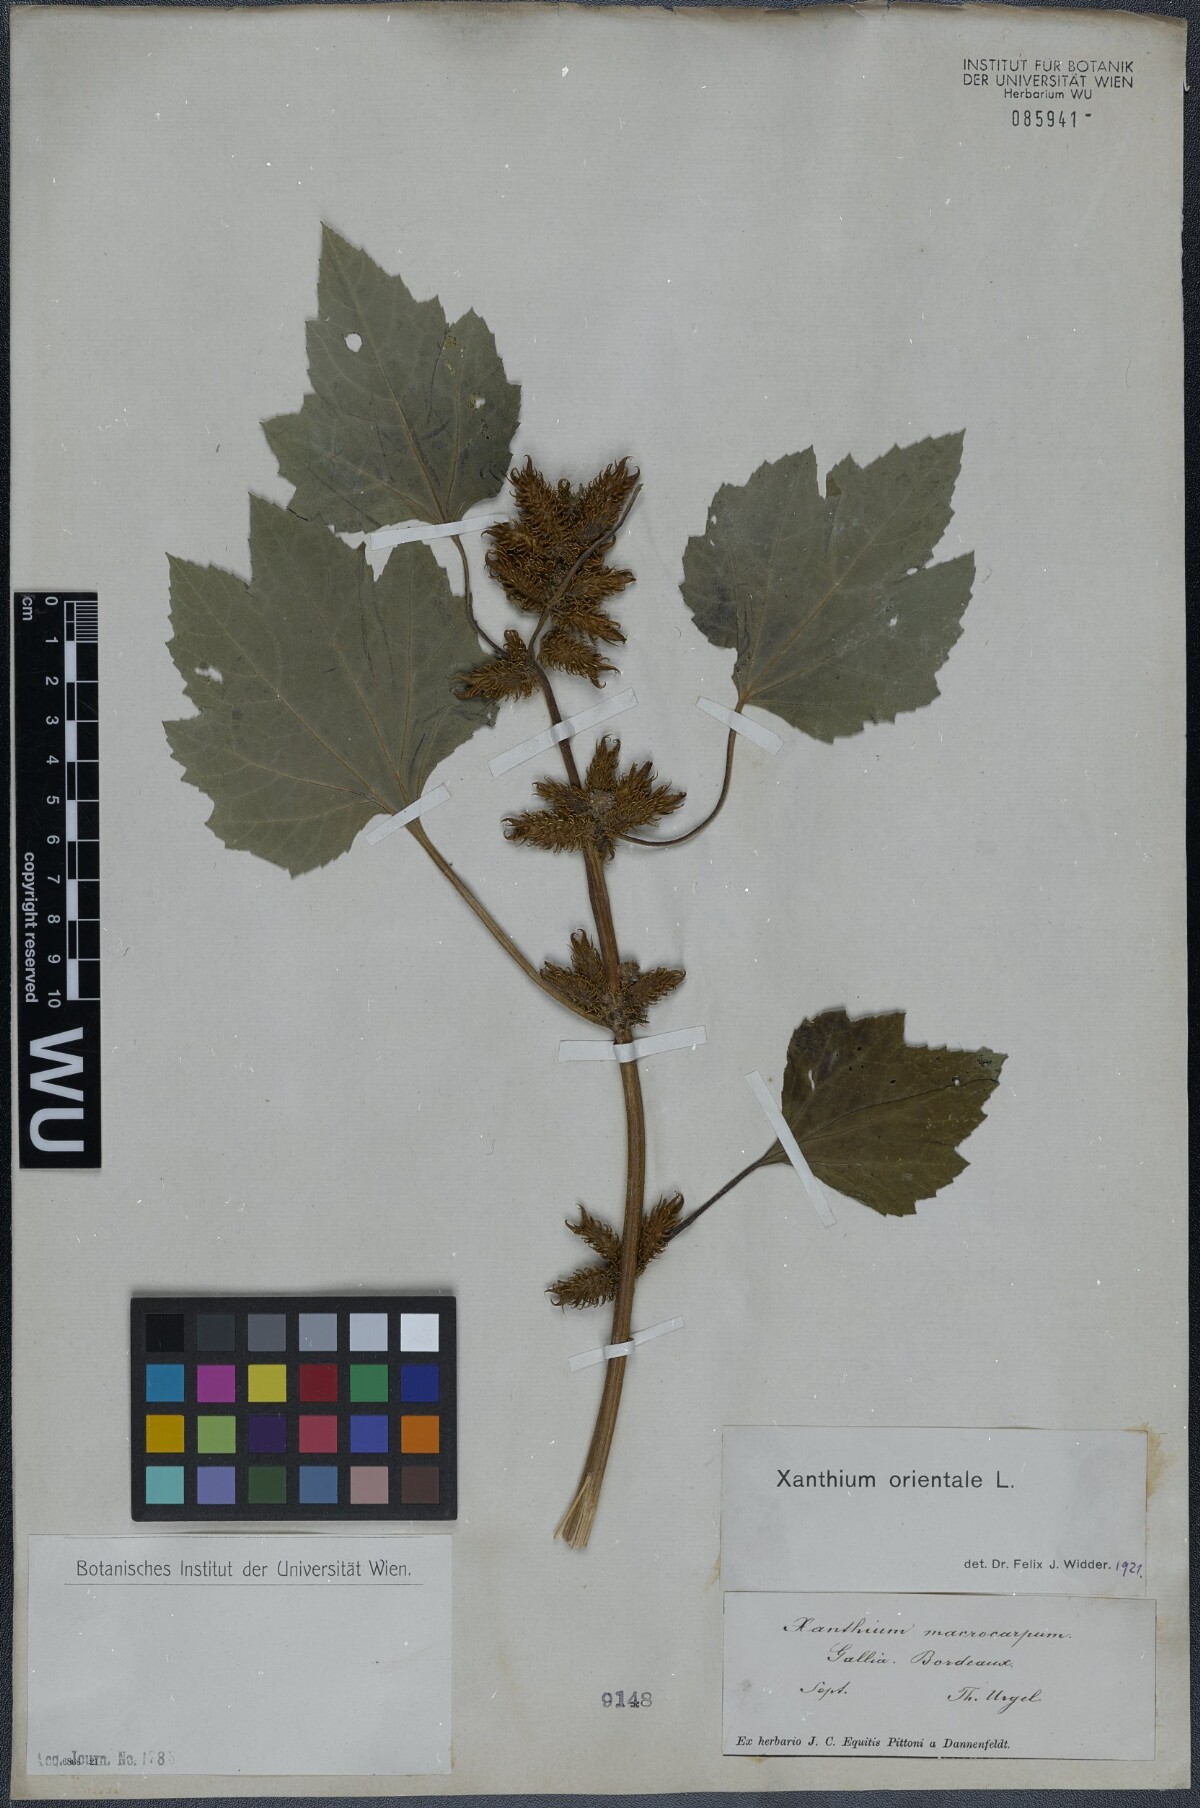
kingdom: Plantae
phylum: Tracheophyta
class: Magnoliopsida
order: Asterales
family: Asteraceae
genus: Xanthium
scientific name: Xanthium orientale
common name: Californian burr
